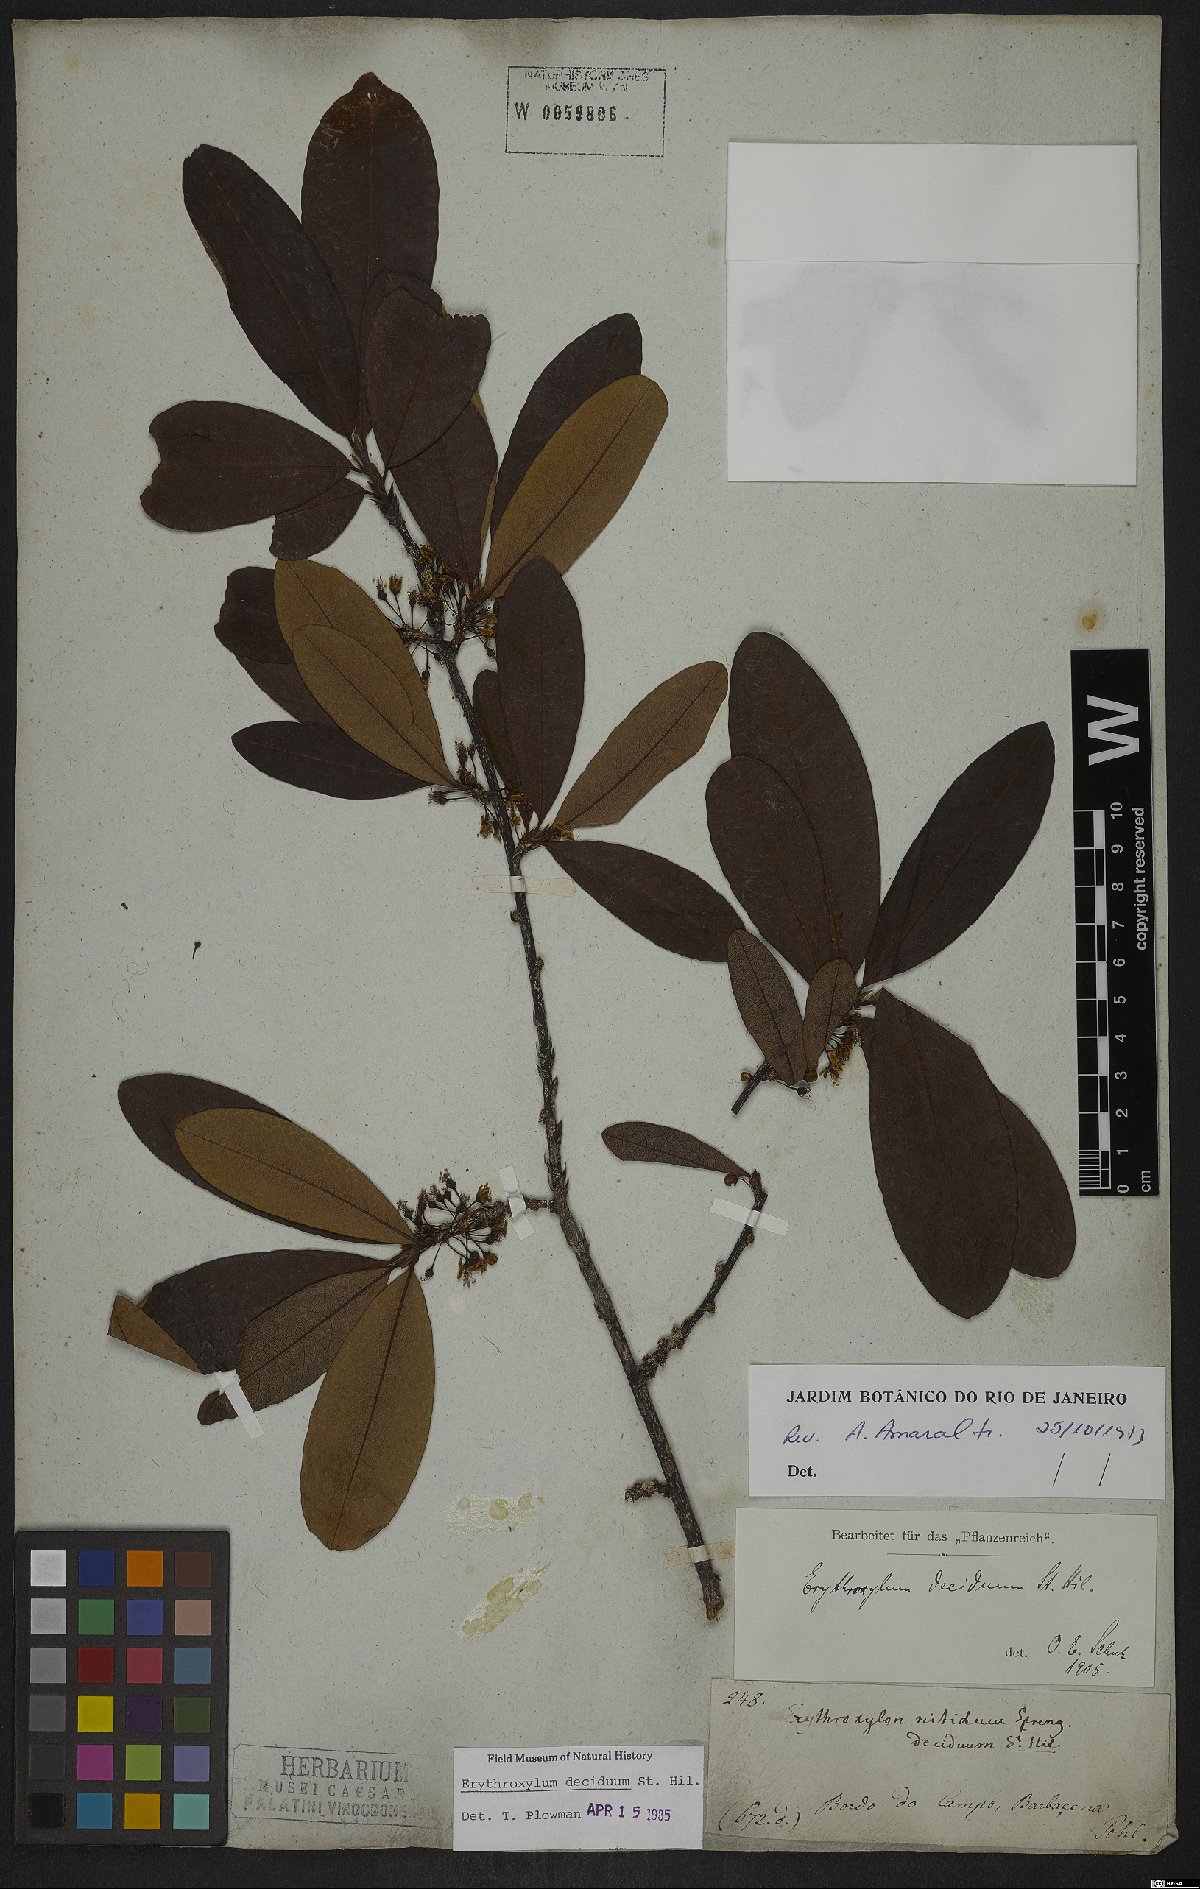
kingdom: Plantae
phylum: Tracheophyta
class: Magnoliopsida
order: Malpighiales
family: Erythroxylaceae
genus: Erythroxylum
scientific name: Erythroxylum deciduum
